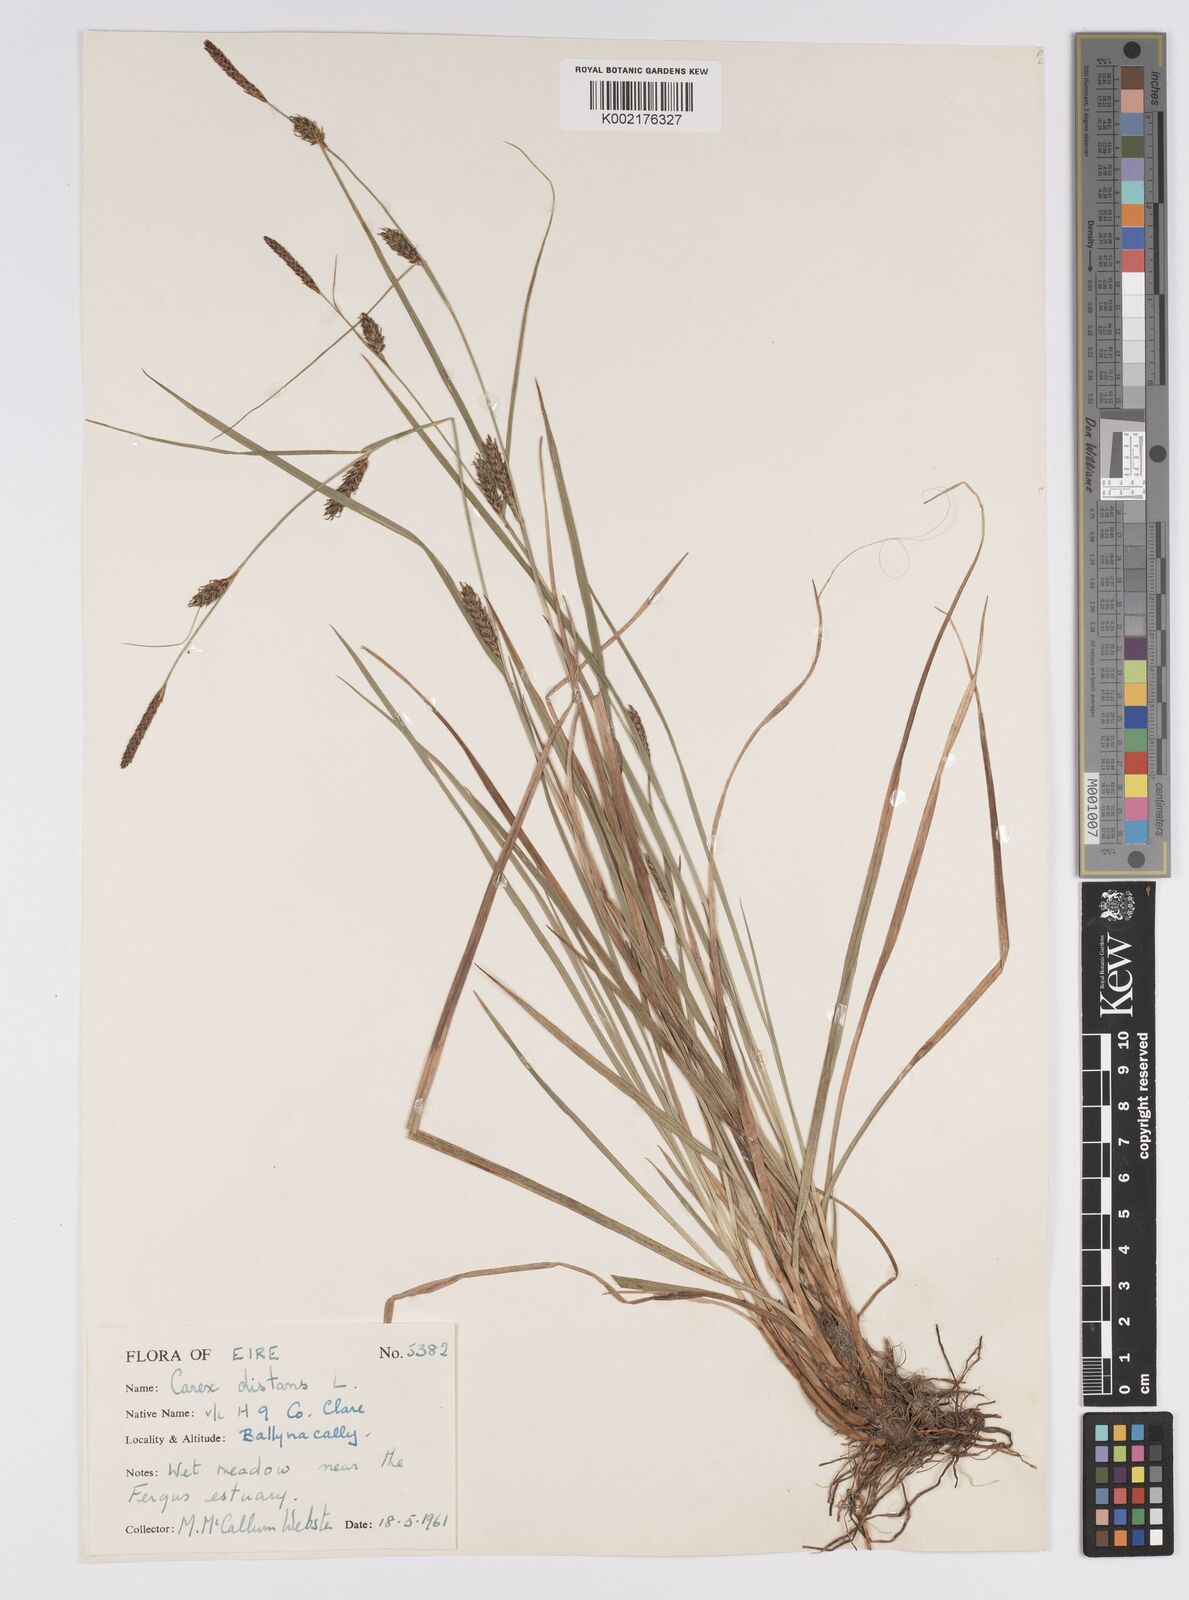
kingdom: Plantae
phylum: Tracheophyta
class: Liliopsida
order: Poales
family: Cyperaceae
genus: Carex
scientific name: Carex distans
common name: Distant sedge
